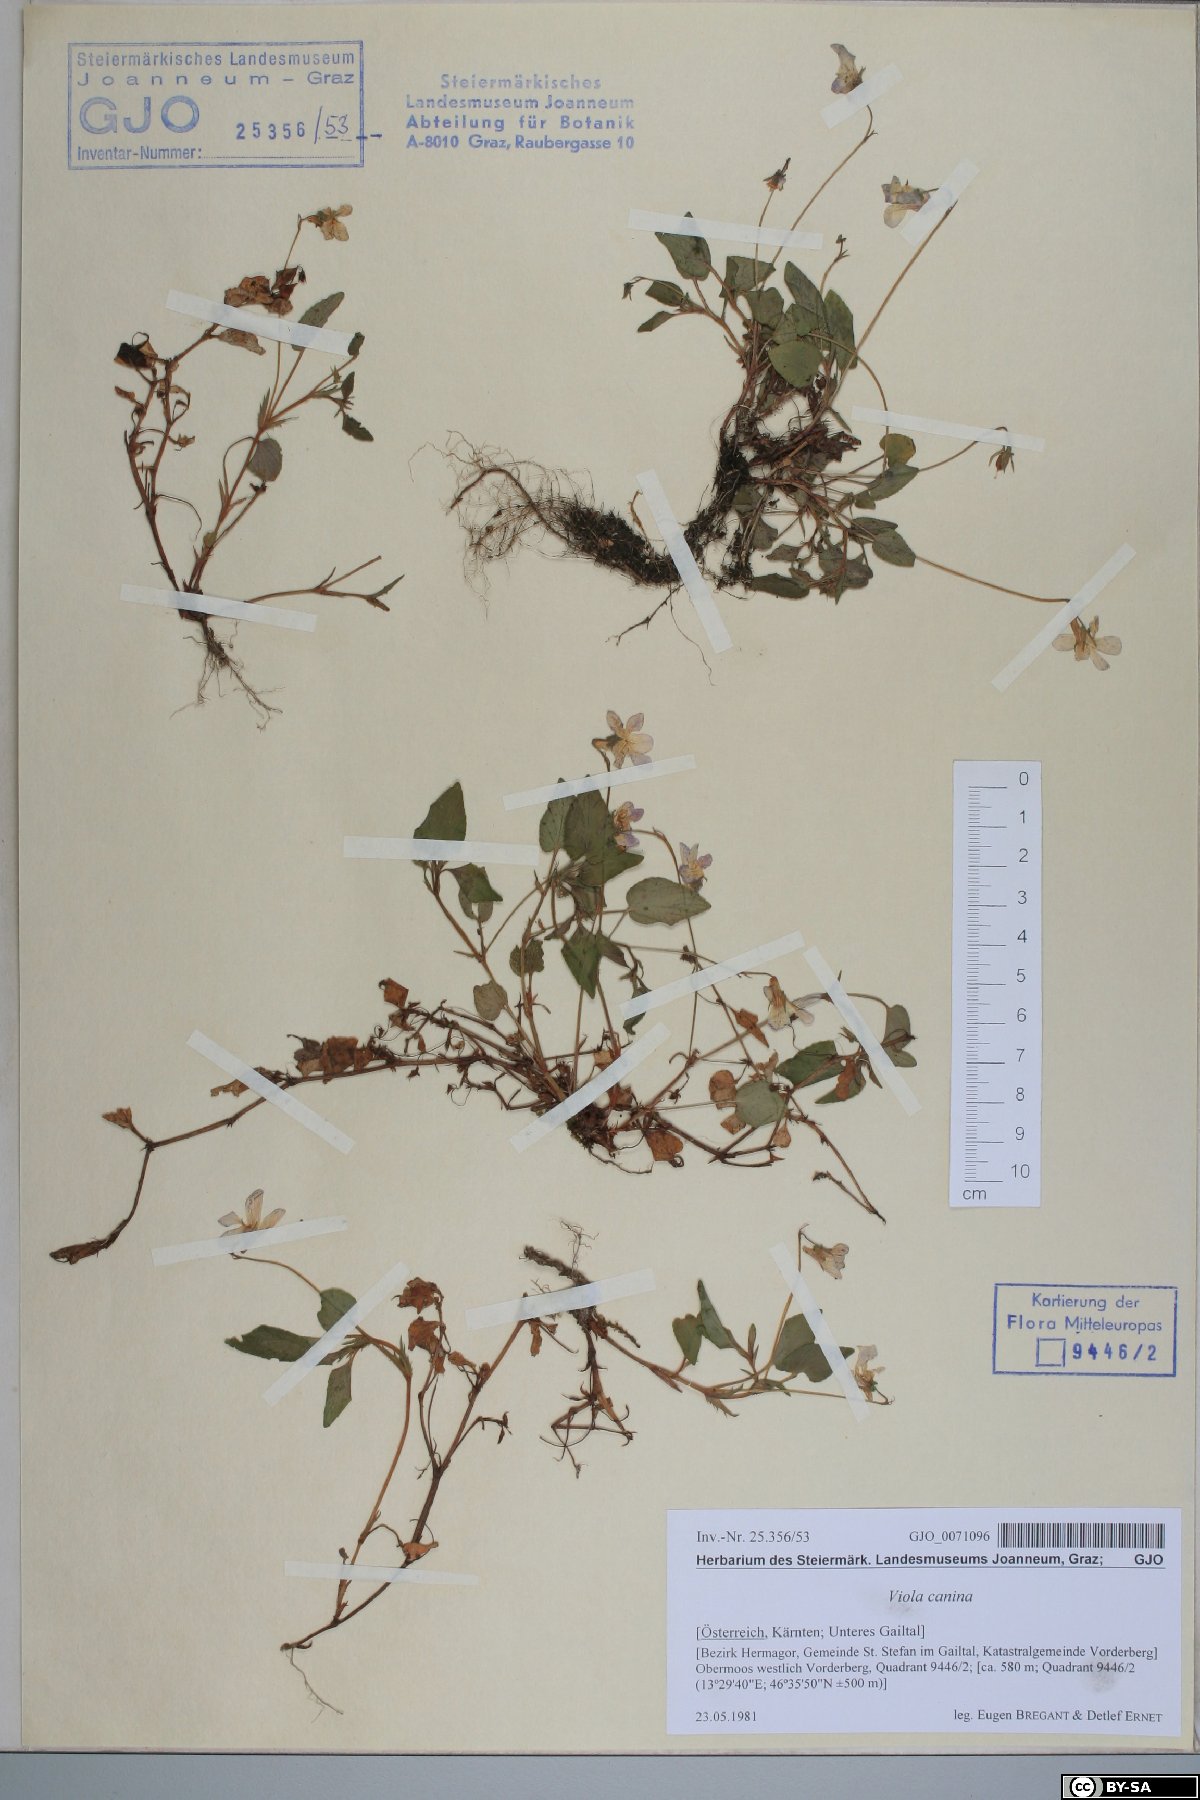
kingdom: Plantae
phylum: Tracheophyta
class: Magnoliopsida
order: Malpighiales
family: Violaceae
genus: Viola
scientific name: Viola canina
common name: Heath dog-violet
